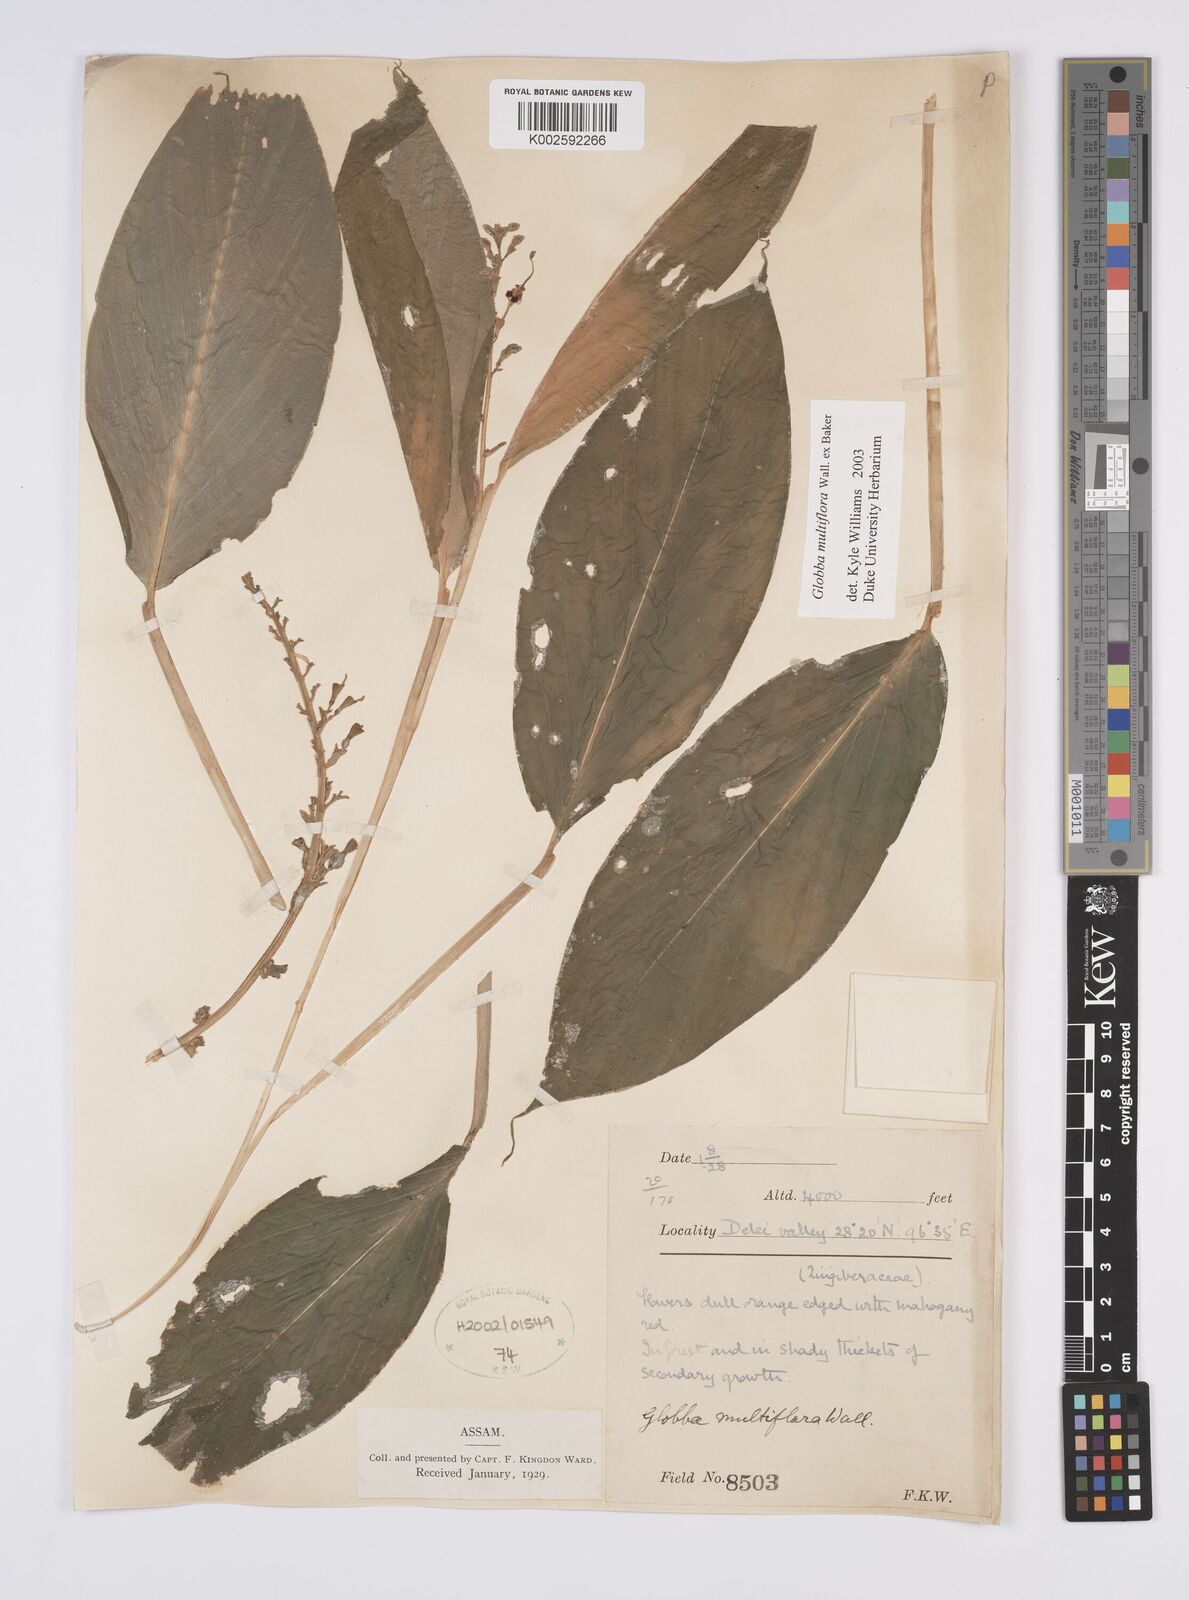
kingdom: Plantae
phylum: Tracheophyta
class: Liliopsida
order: Zingiberales
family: Zingiberaceae
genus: Globba
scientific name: Globba multiflora
